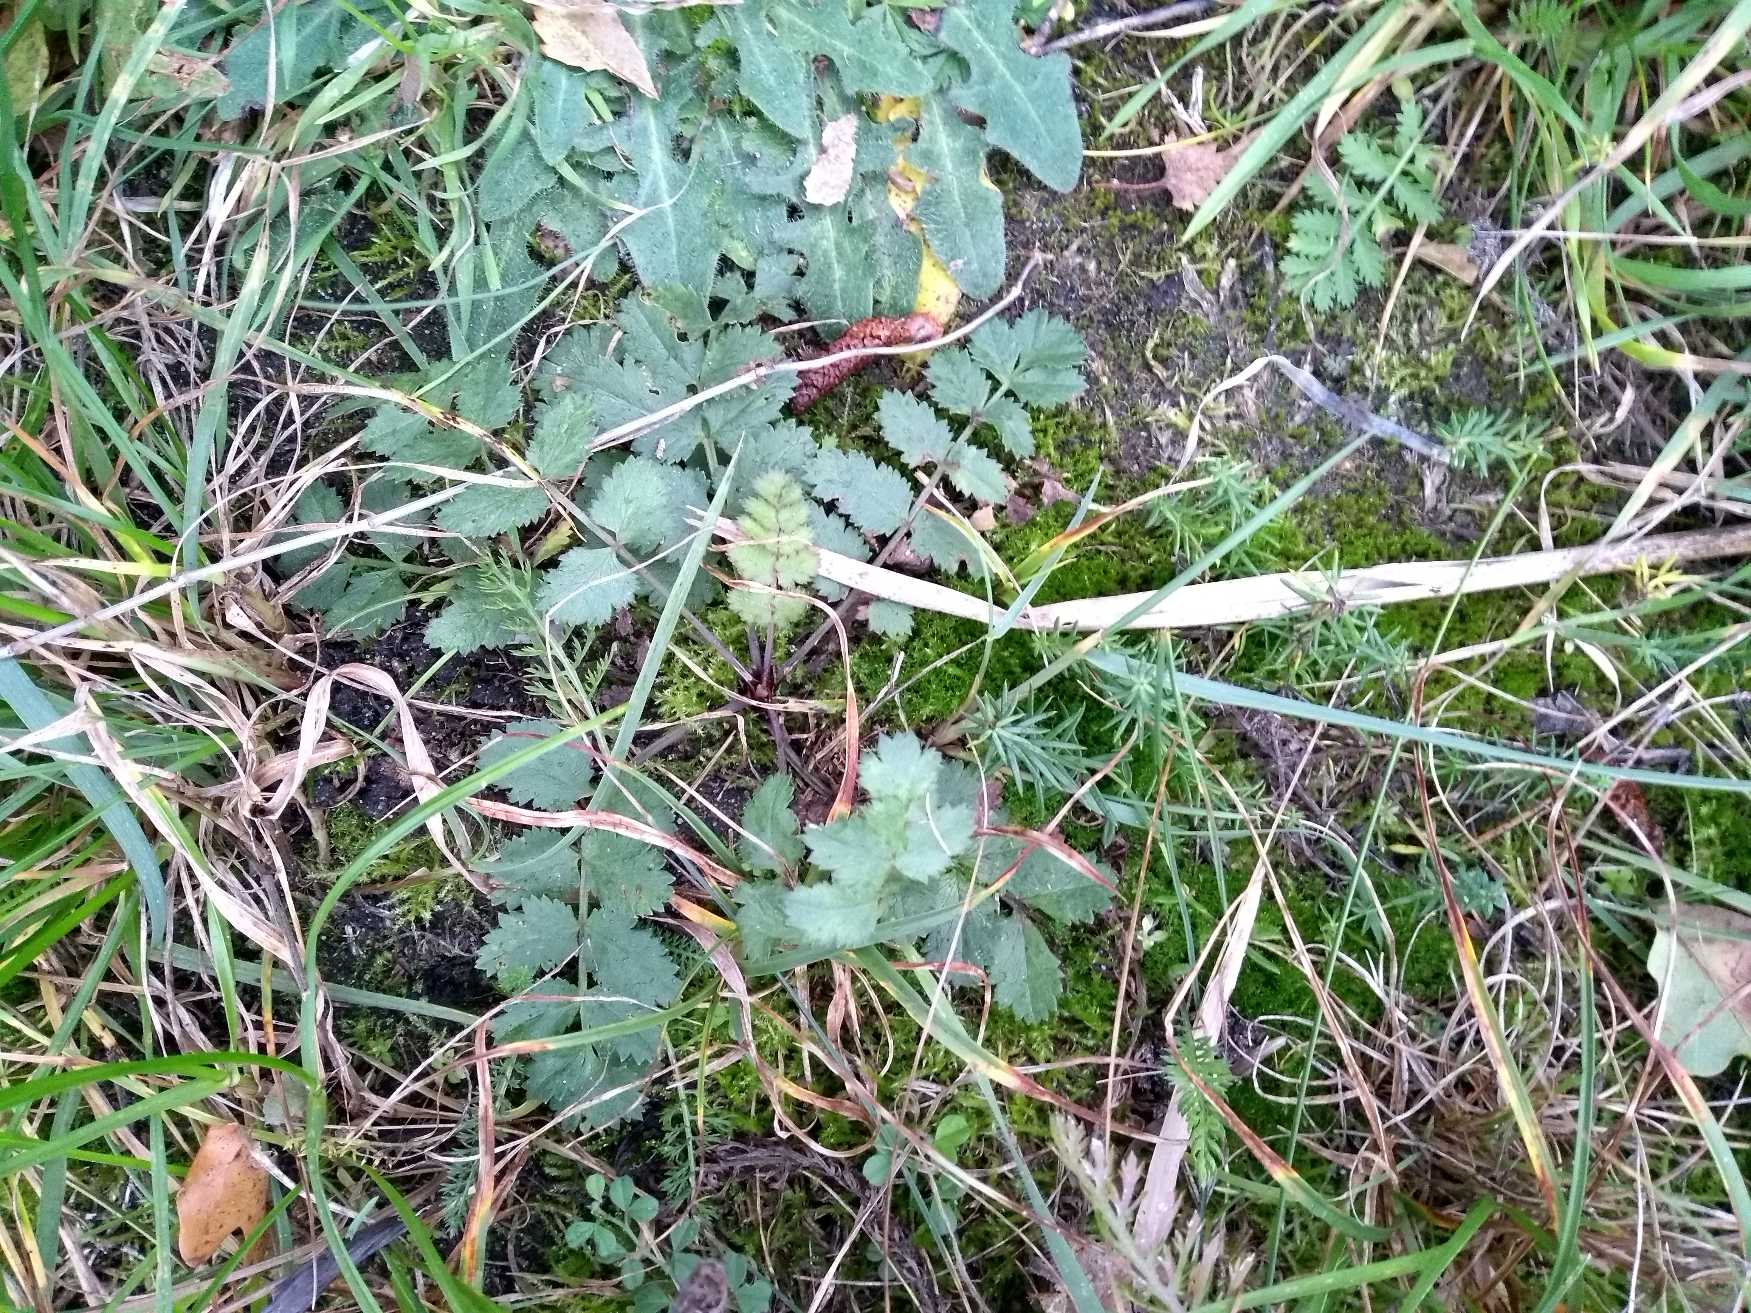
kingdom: Plantae
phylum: Tracheophyta
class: Magnoliopsida
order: Apiales
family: Apiaceae
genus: Pimpinella
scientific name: Pimpinella saxifraga
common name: Almindelig pimpinelle
